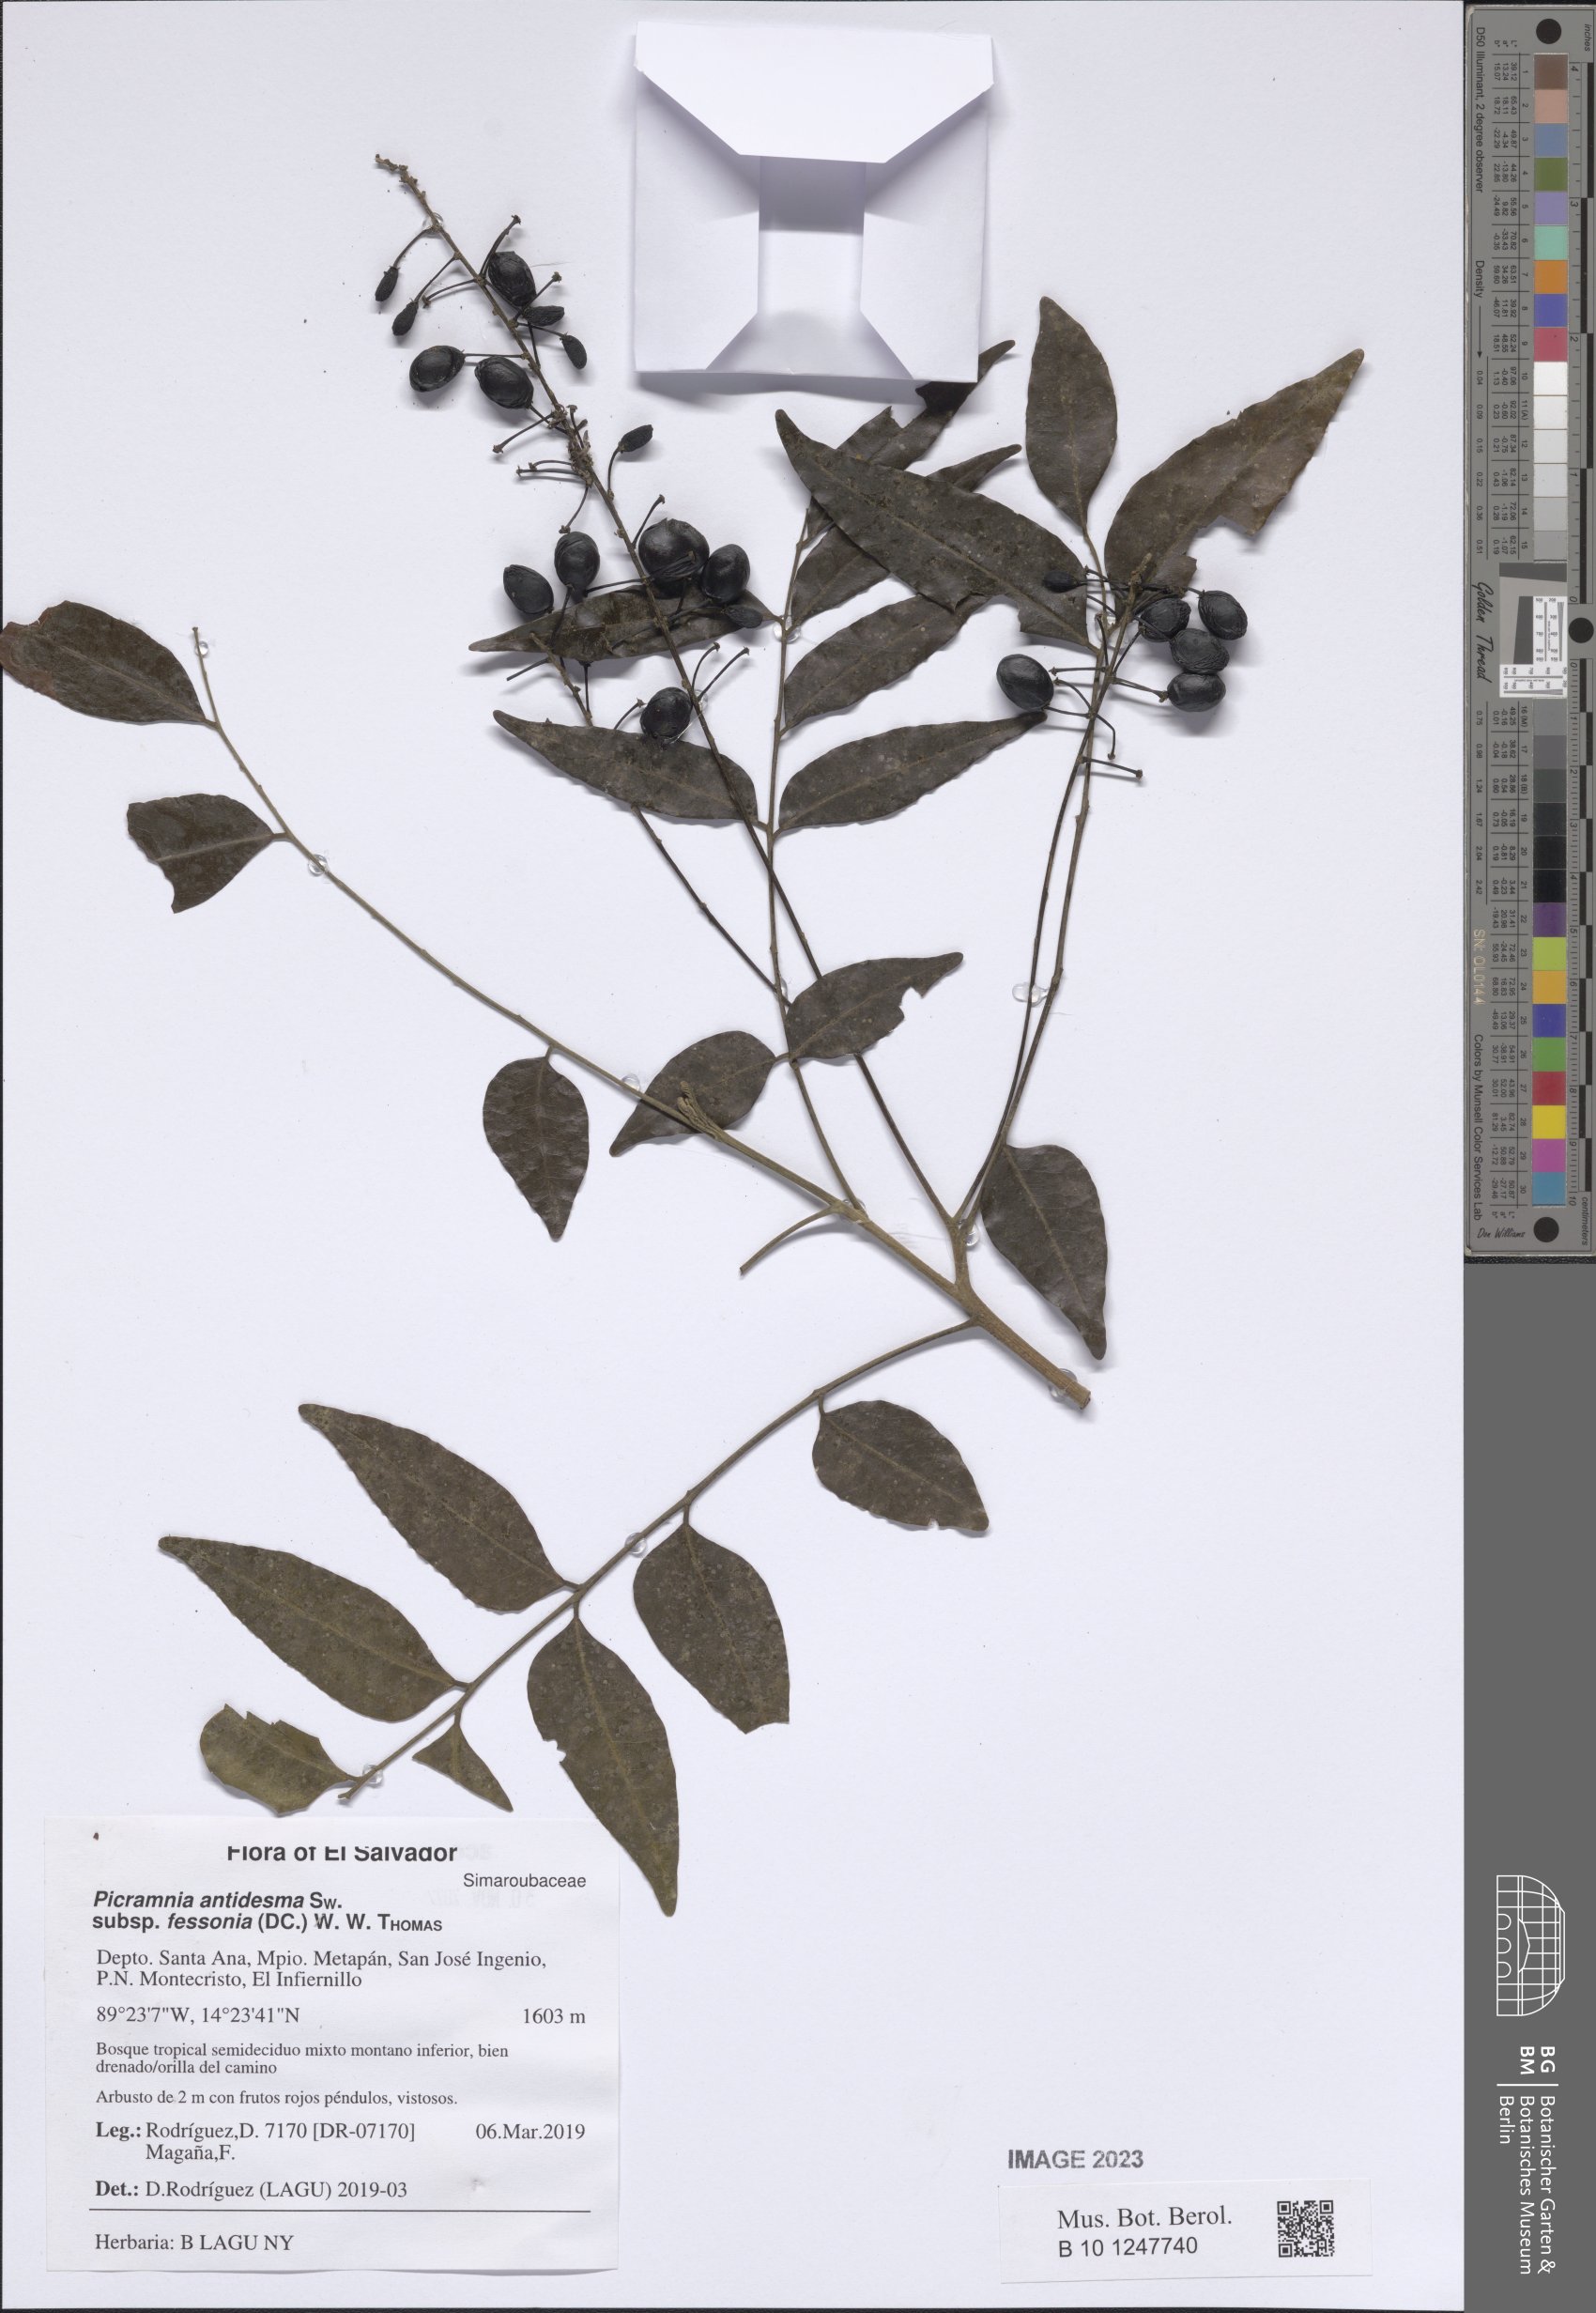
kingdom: Plantae
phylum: Tracheophyta
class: Magnoliopsida
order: Picramniales
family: Picramniaceae
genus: Picramnia
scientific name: Picramnia antidesma
